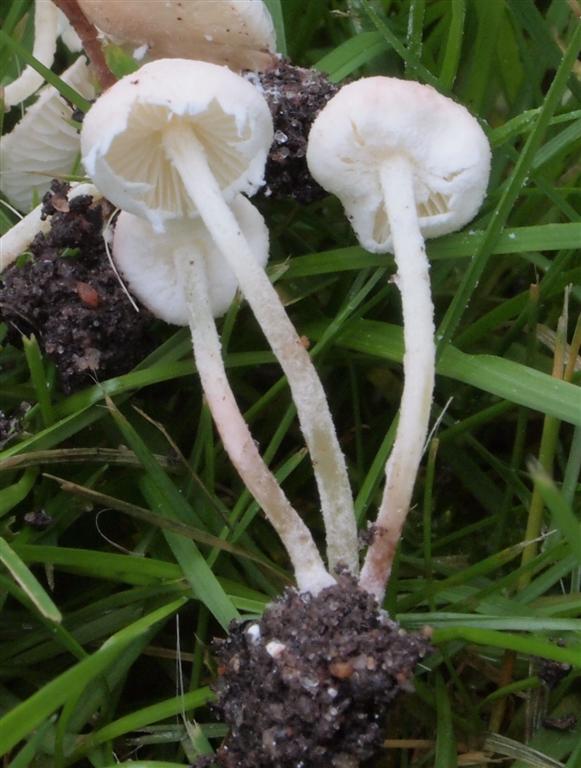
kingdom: Fungi
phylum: Basidiomycota
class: Agaricomycetes
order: Agaricales
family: Agaricaceae
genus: Cystolepiota
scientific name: Cystolepiota seminuda
